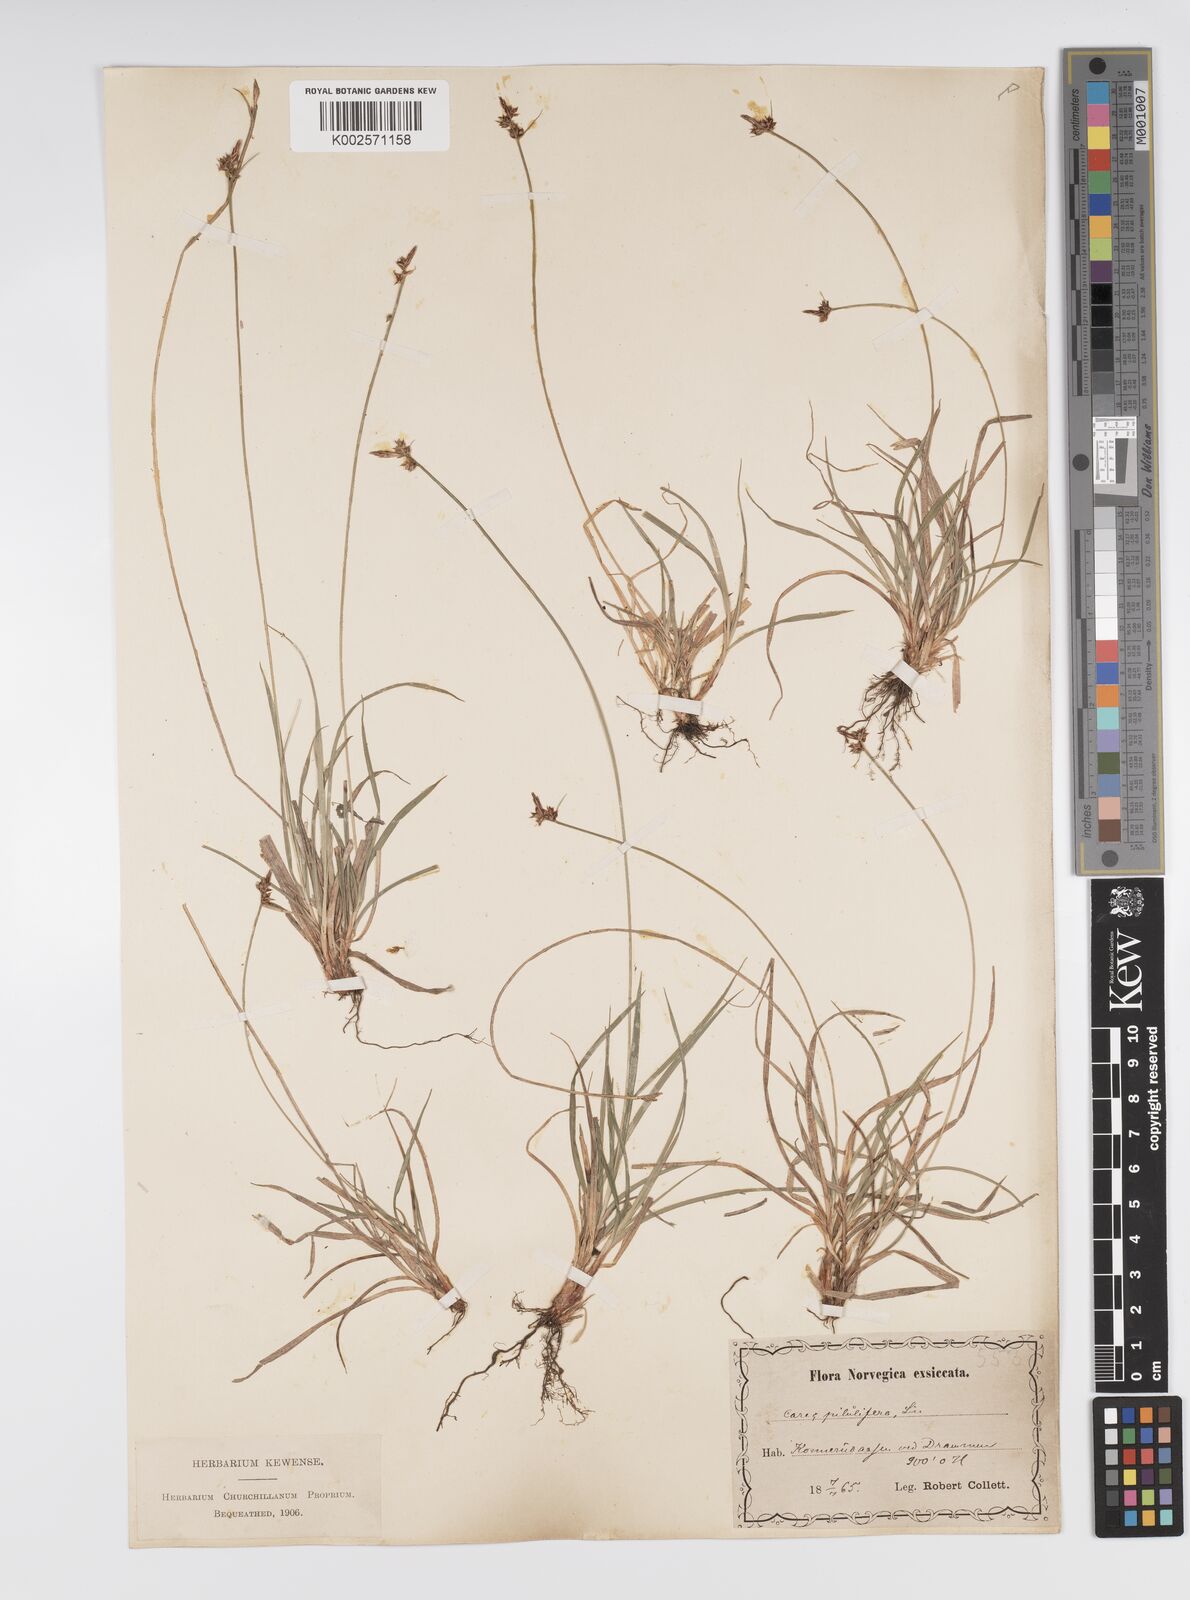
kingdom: Plantae
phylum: Tracheophyta
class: Liliopsida
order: Poales
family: Cyperaceae
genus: Carex
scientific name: Carex pilulifera
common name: Pill sedge
